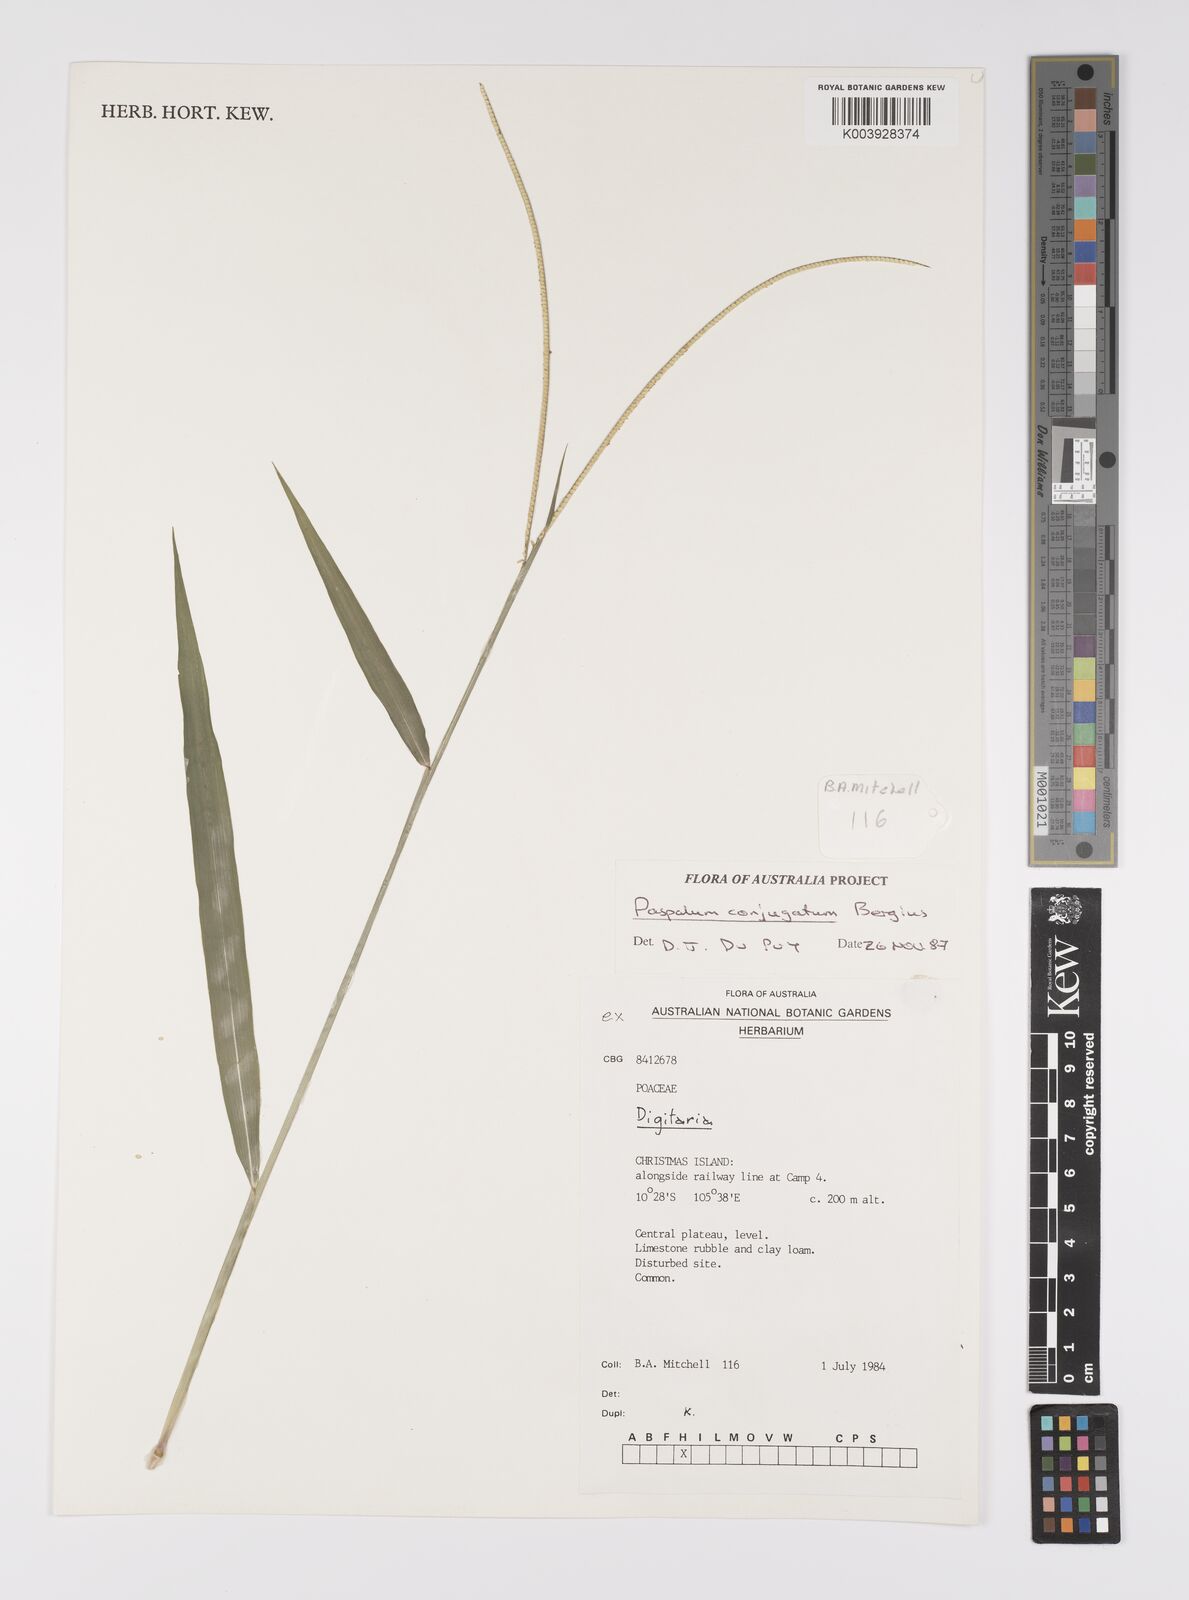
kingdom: Plantae
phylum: Tracheophyta
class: Liliopsida
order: Poales
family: Poaceae
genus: Paspalum
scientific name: Paspalum conjugatum
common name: Hilograss
